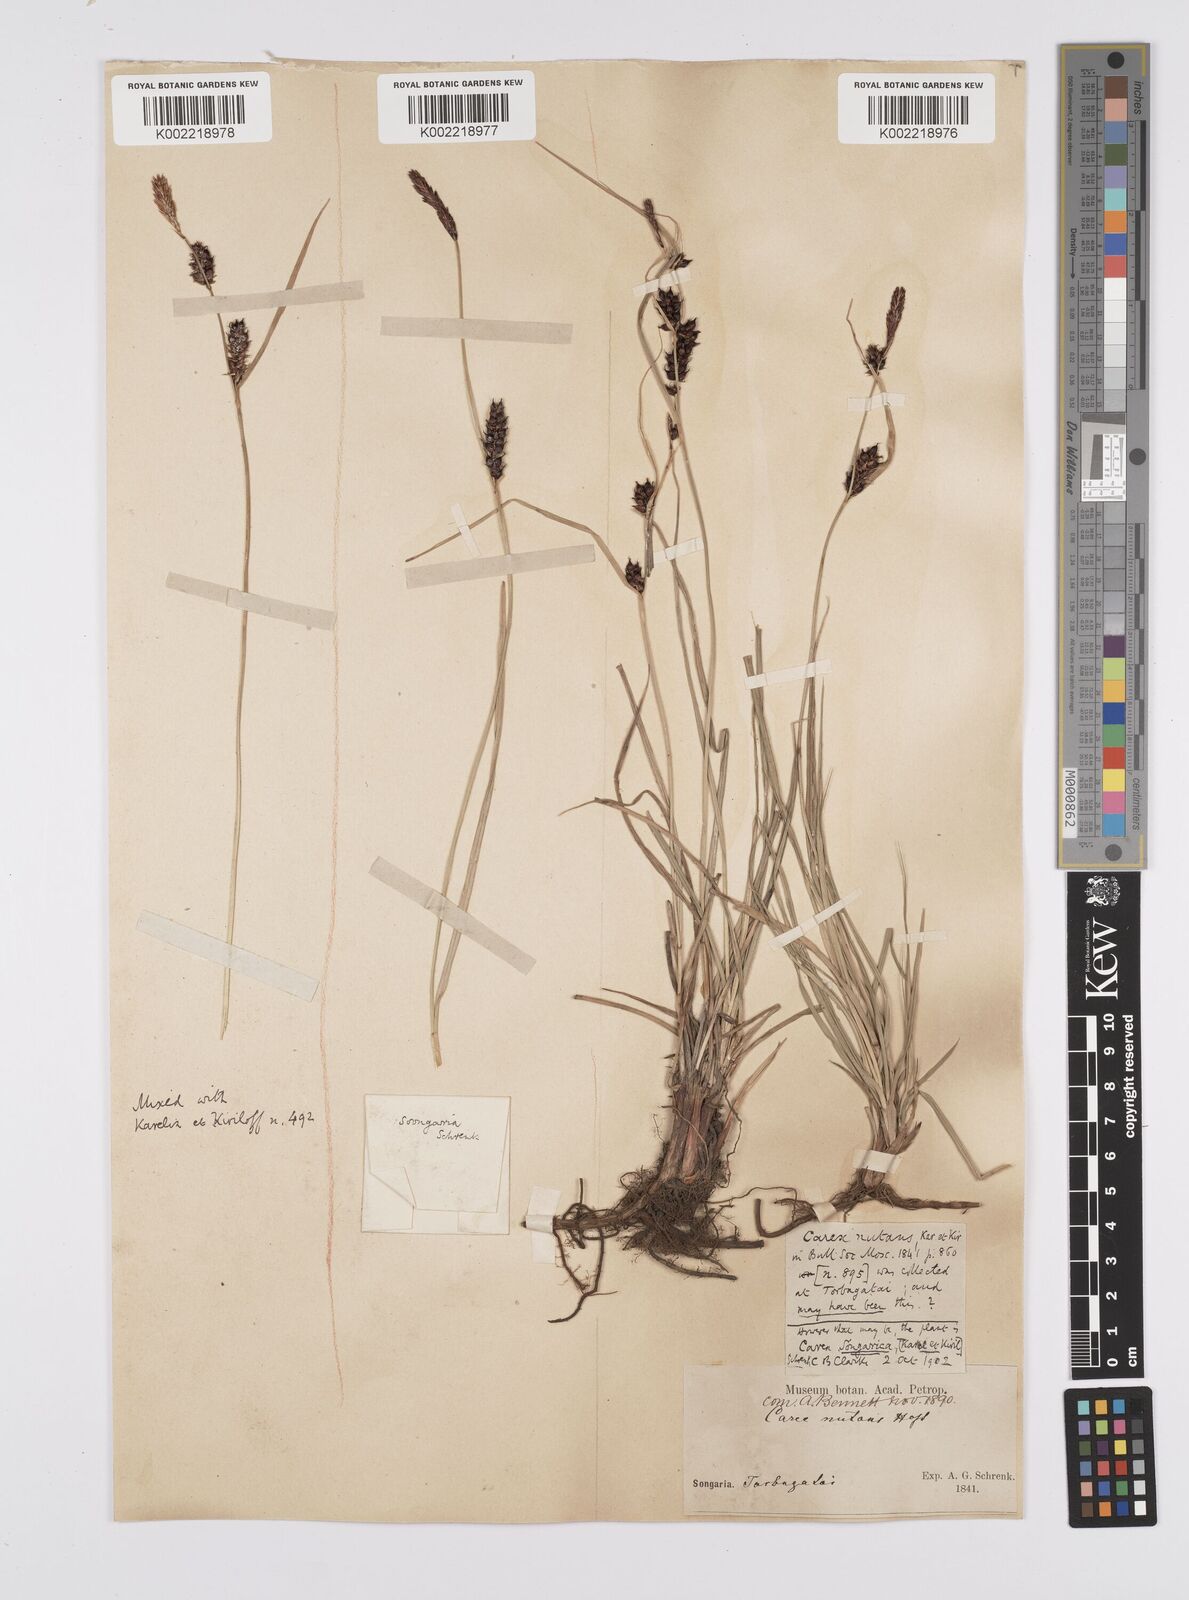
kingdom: Plantae
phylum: Tracheophyta
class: Liliopsida
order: Poales
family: Cyperaceae
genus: Carex
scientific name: Carex heterostachya
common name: Different-spike sedge
